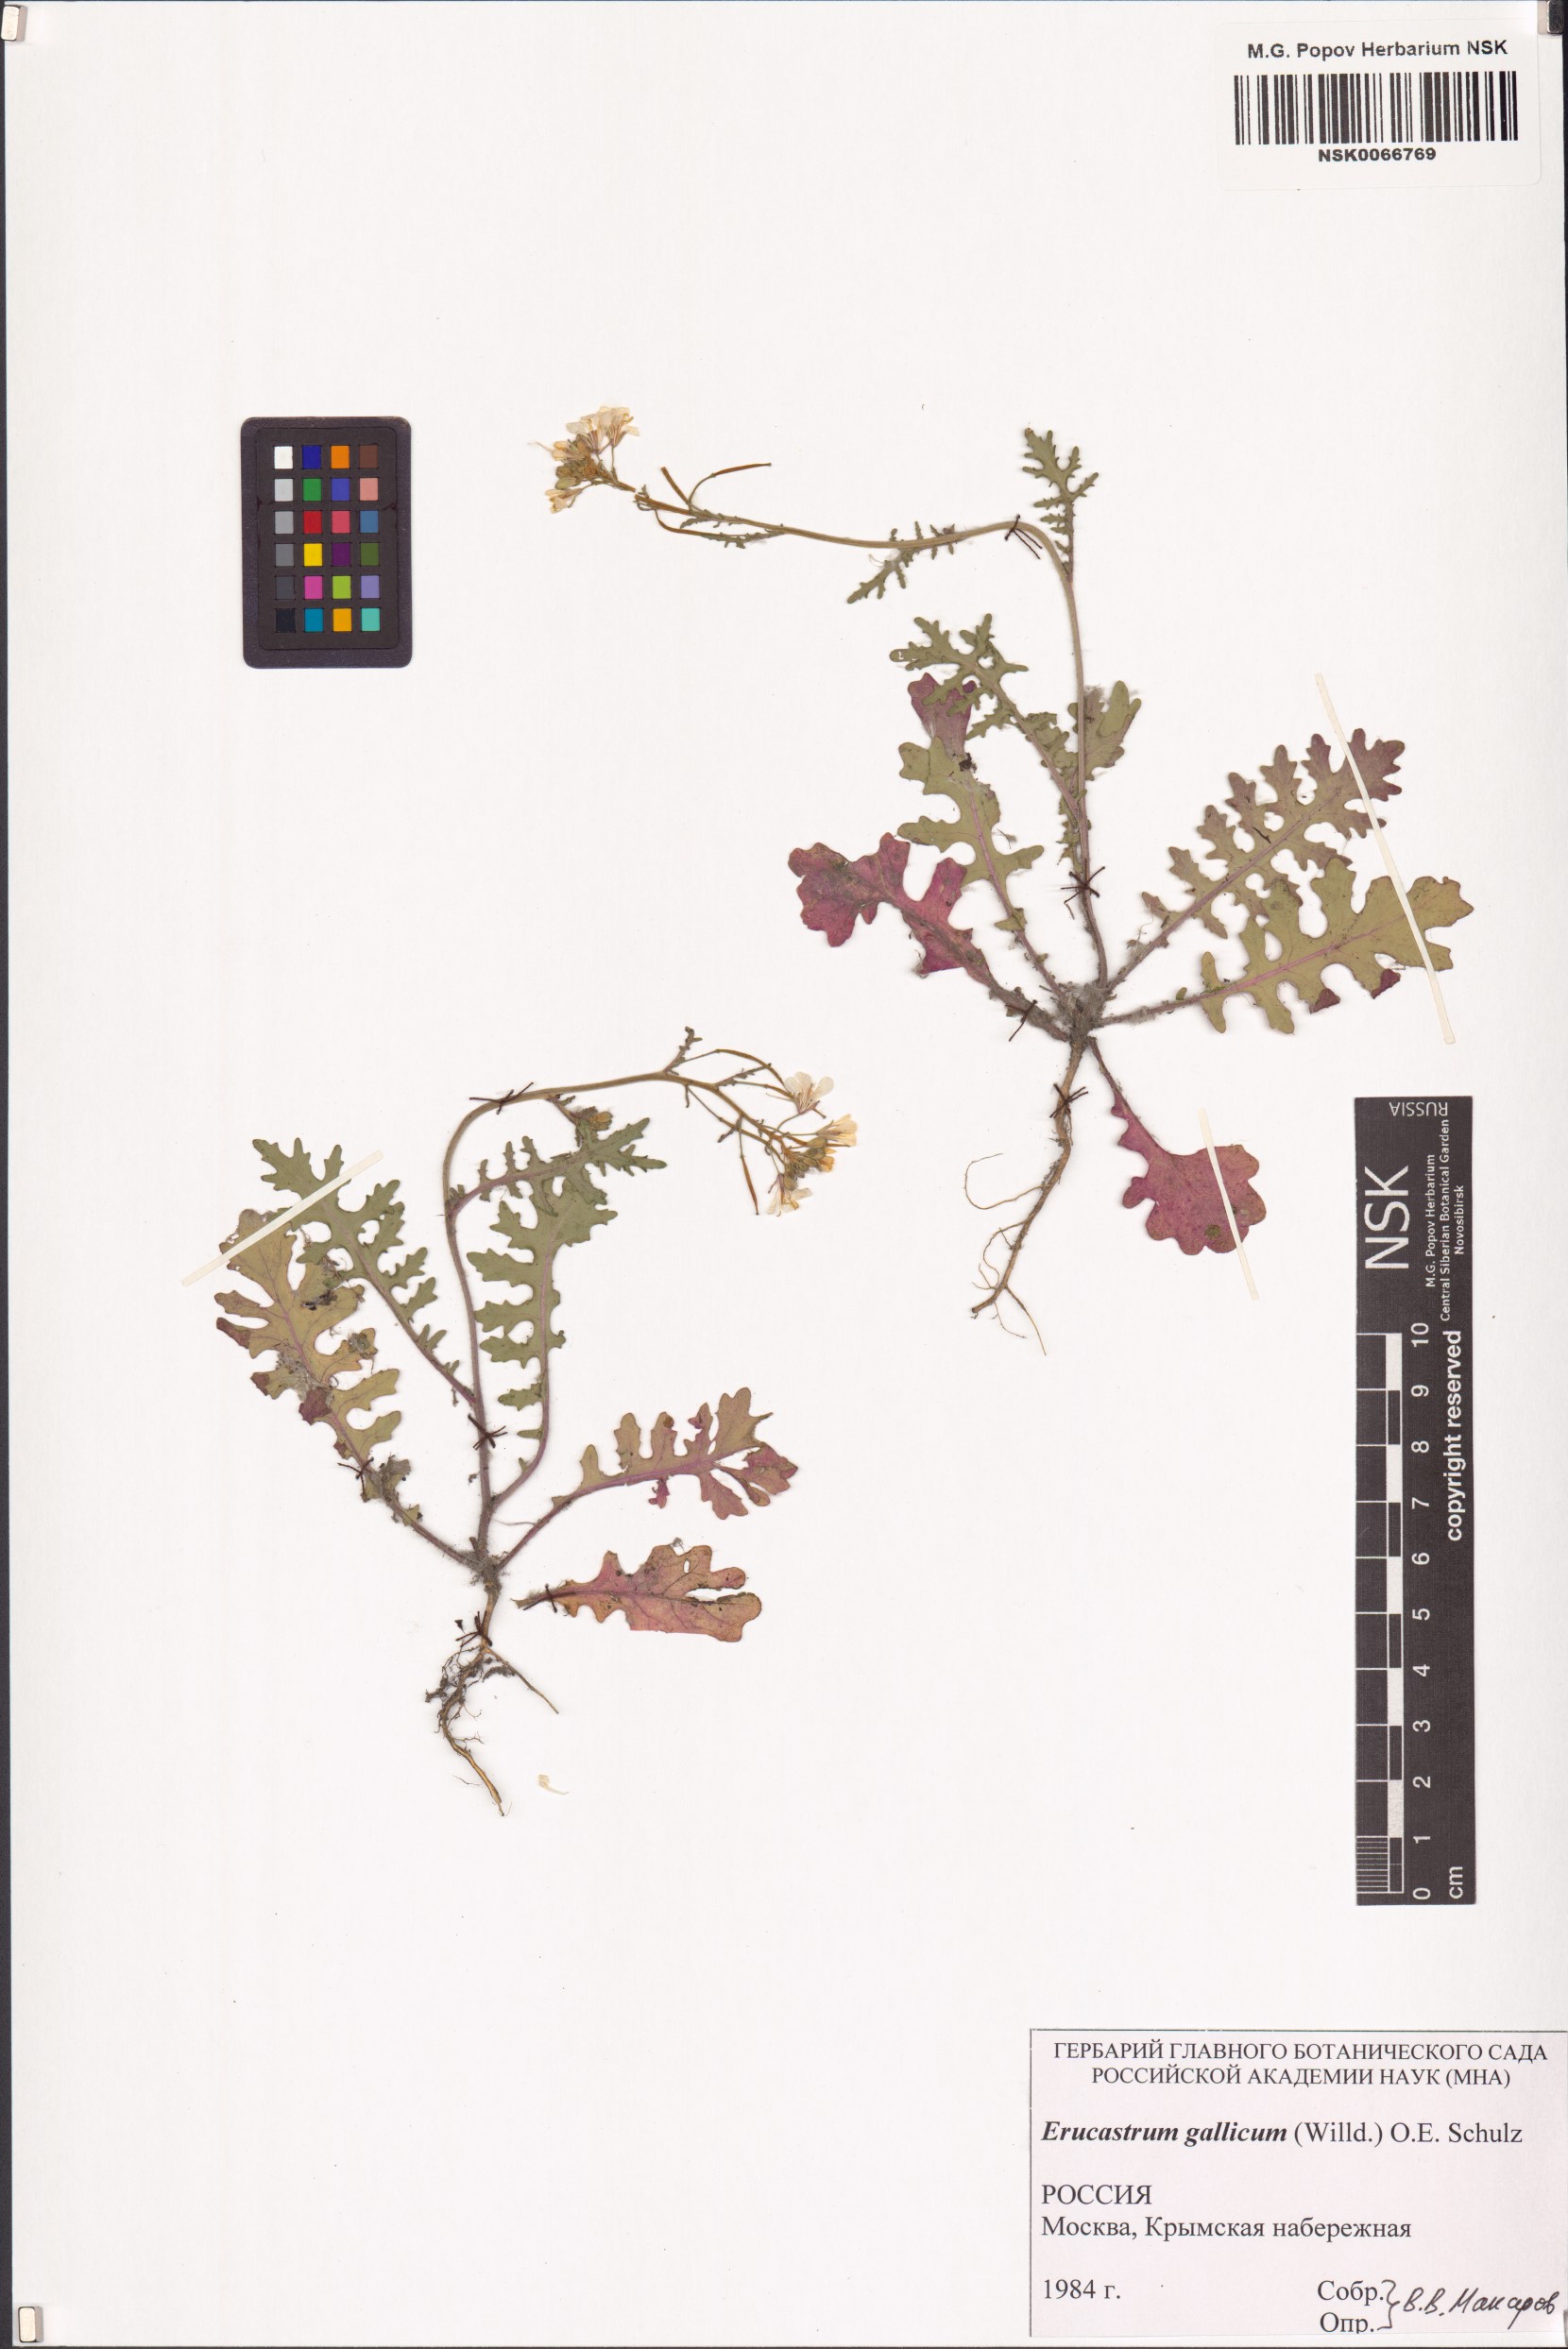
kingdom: Plantae
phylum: Tracheophyta
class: Magnoliopsida
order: Brassicales
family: Brassicaceae
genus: Erucastrum
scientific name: Erucastrum gallicum
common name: Hairy rocket
